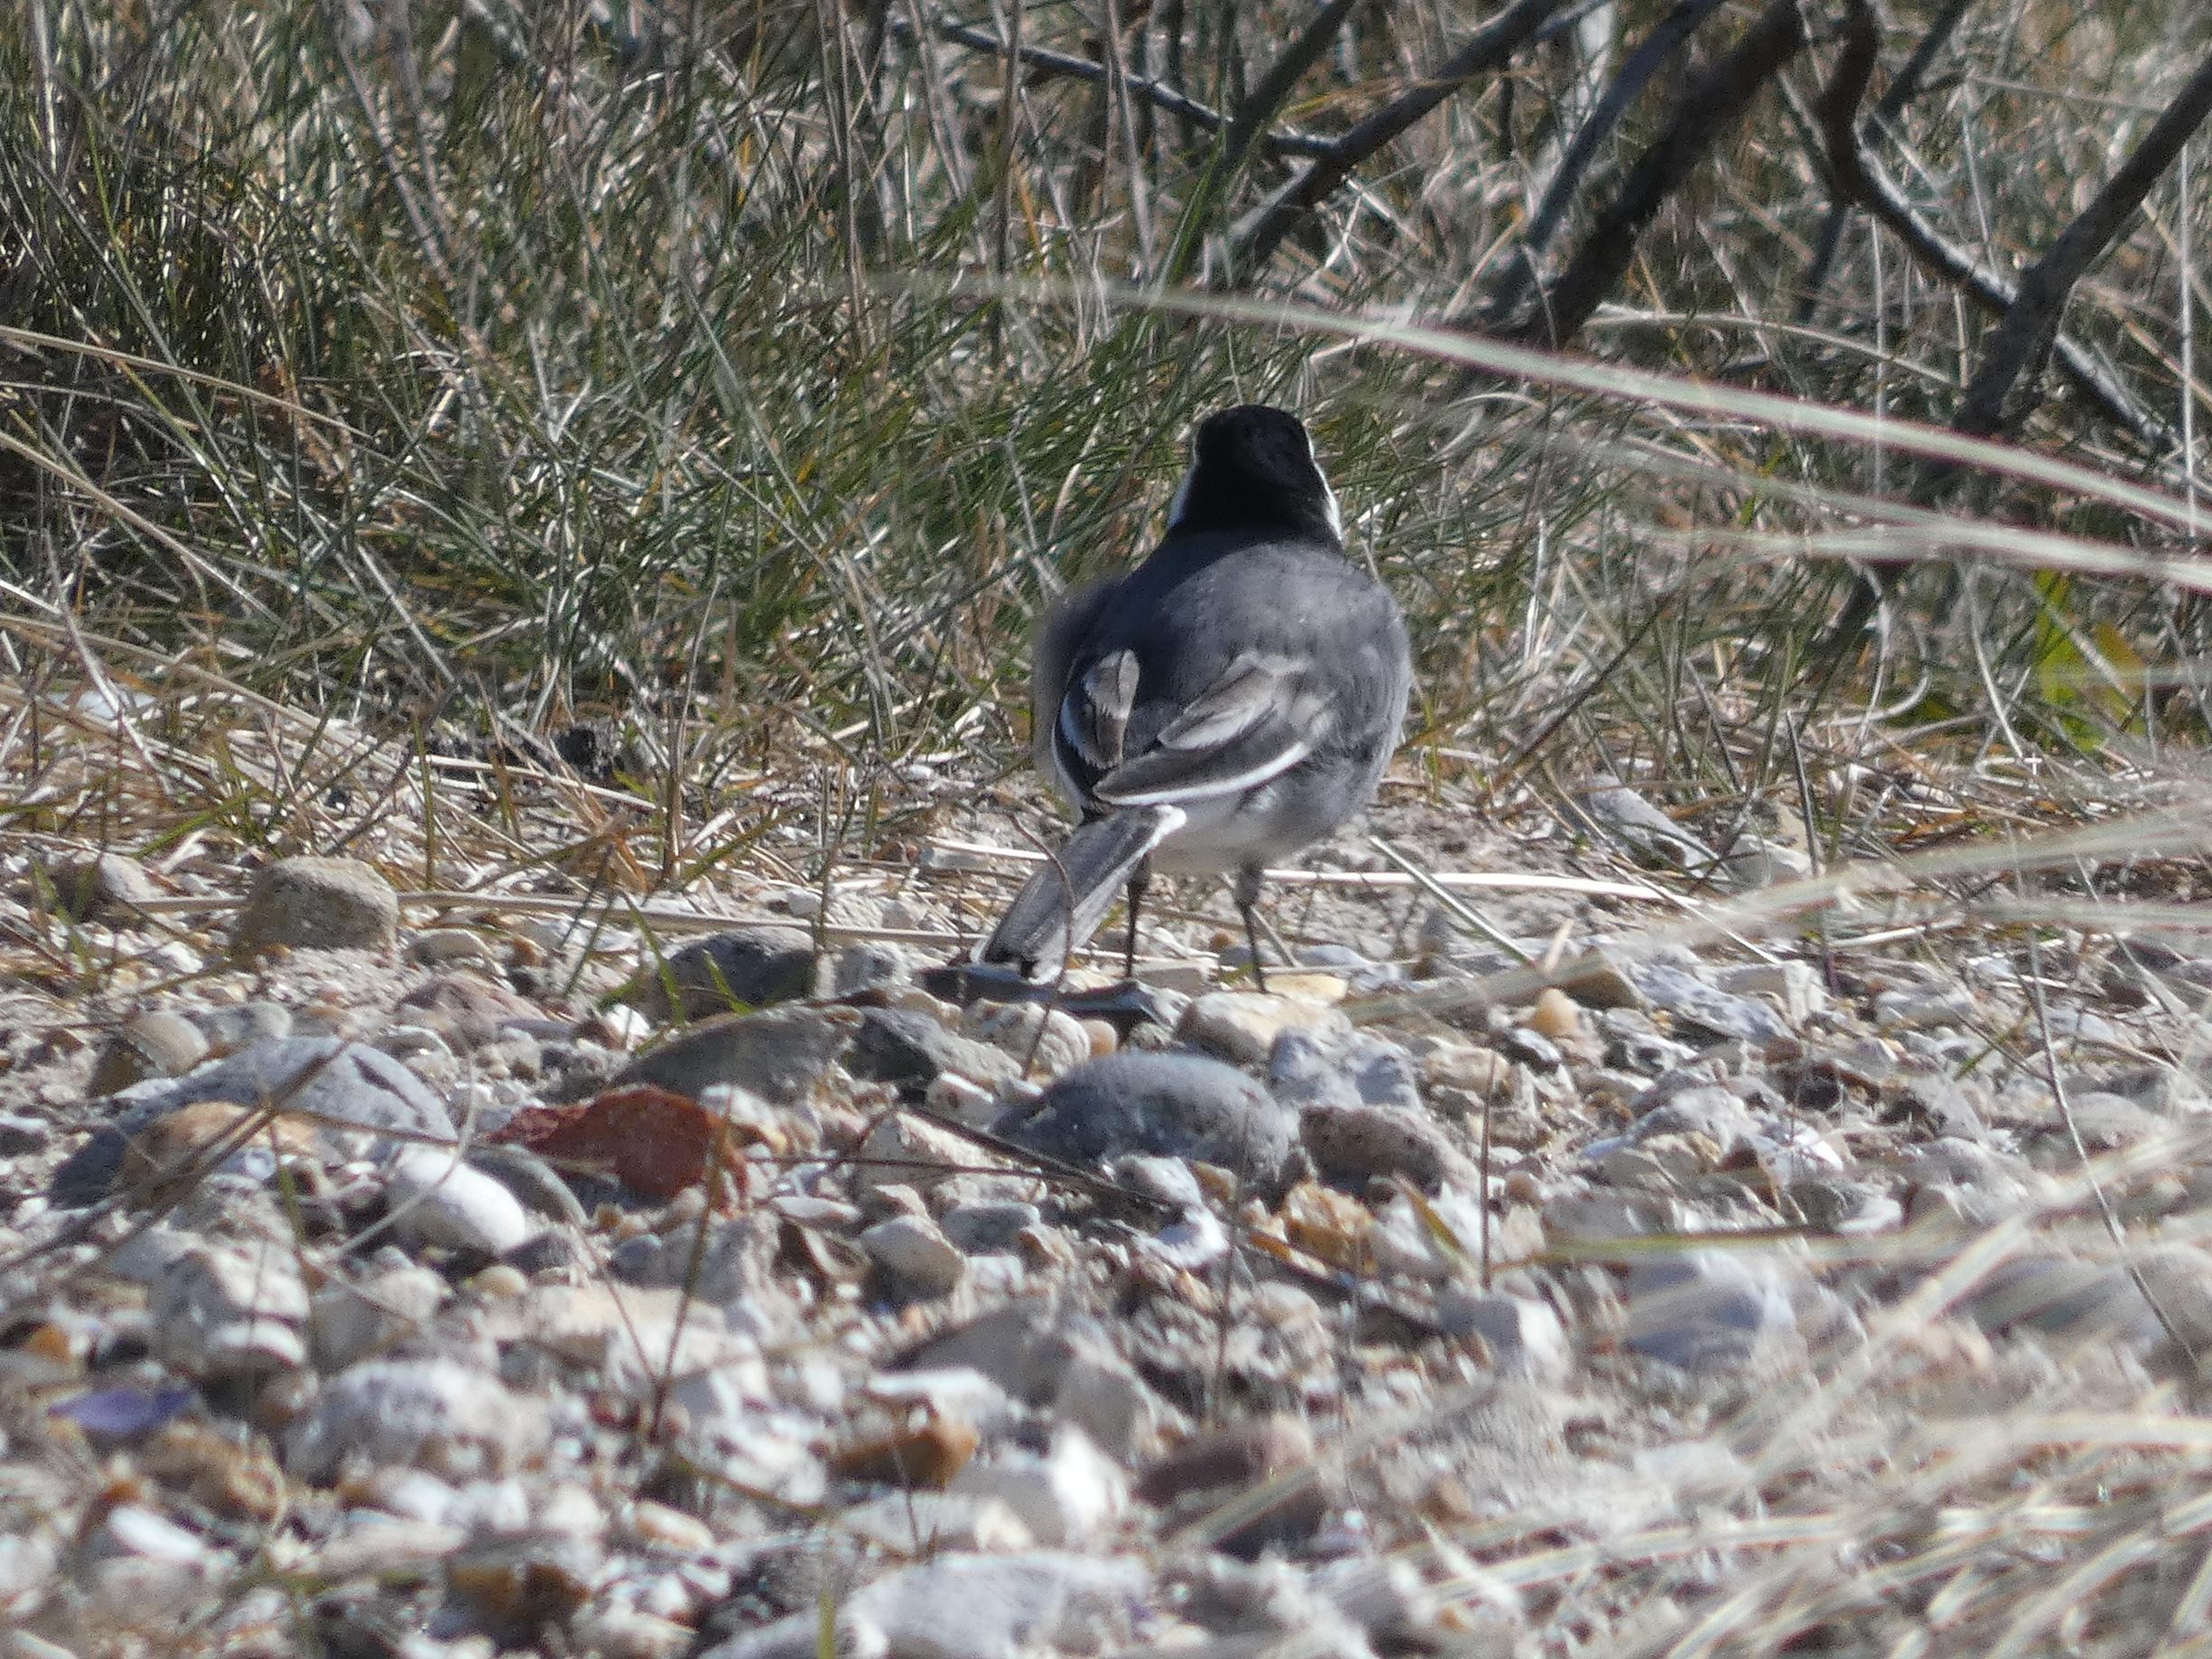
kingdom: Animalia
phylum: Chordata
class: Aves
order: Passeriformes
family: Motacillidae
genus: Motacilla
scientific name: Motacilla alba
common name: Sortrygget vipstjert
